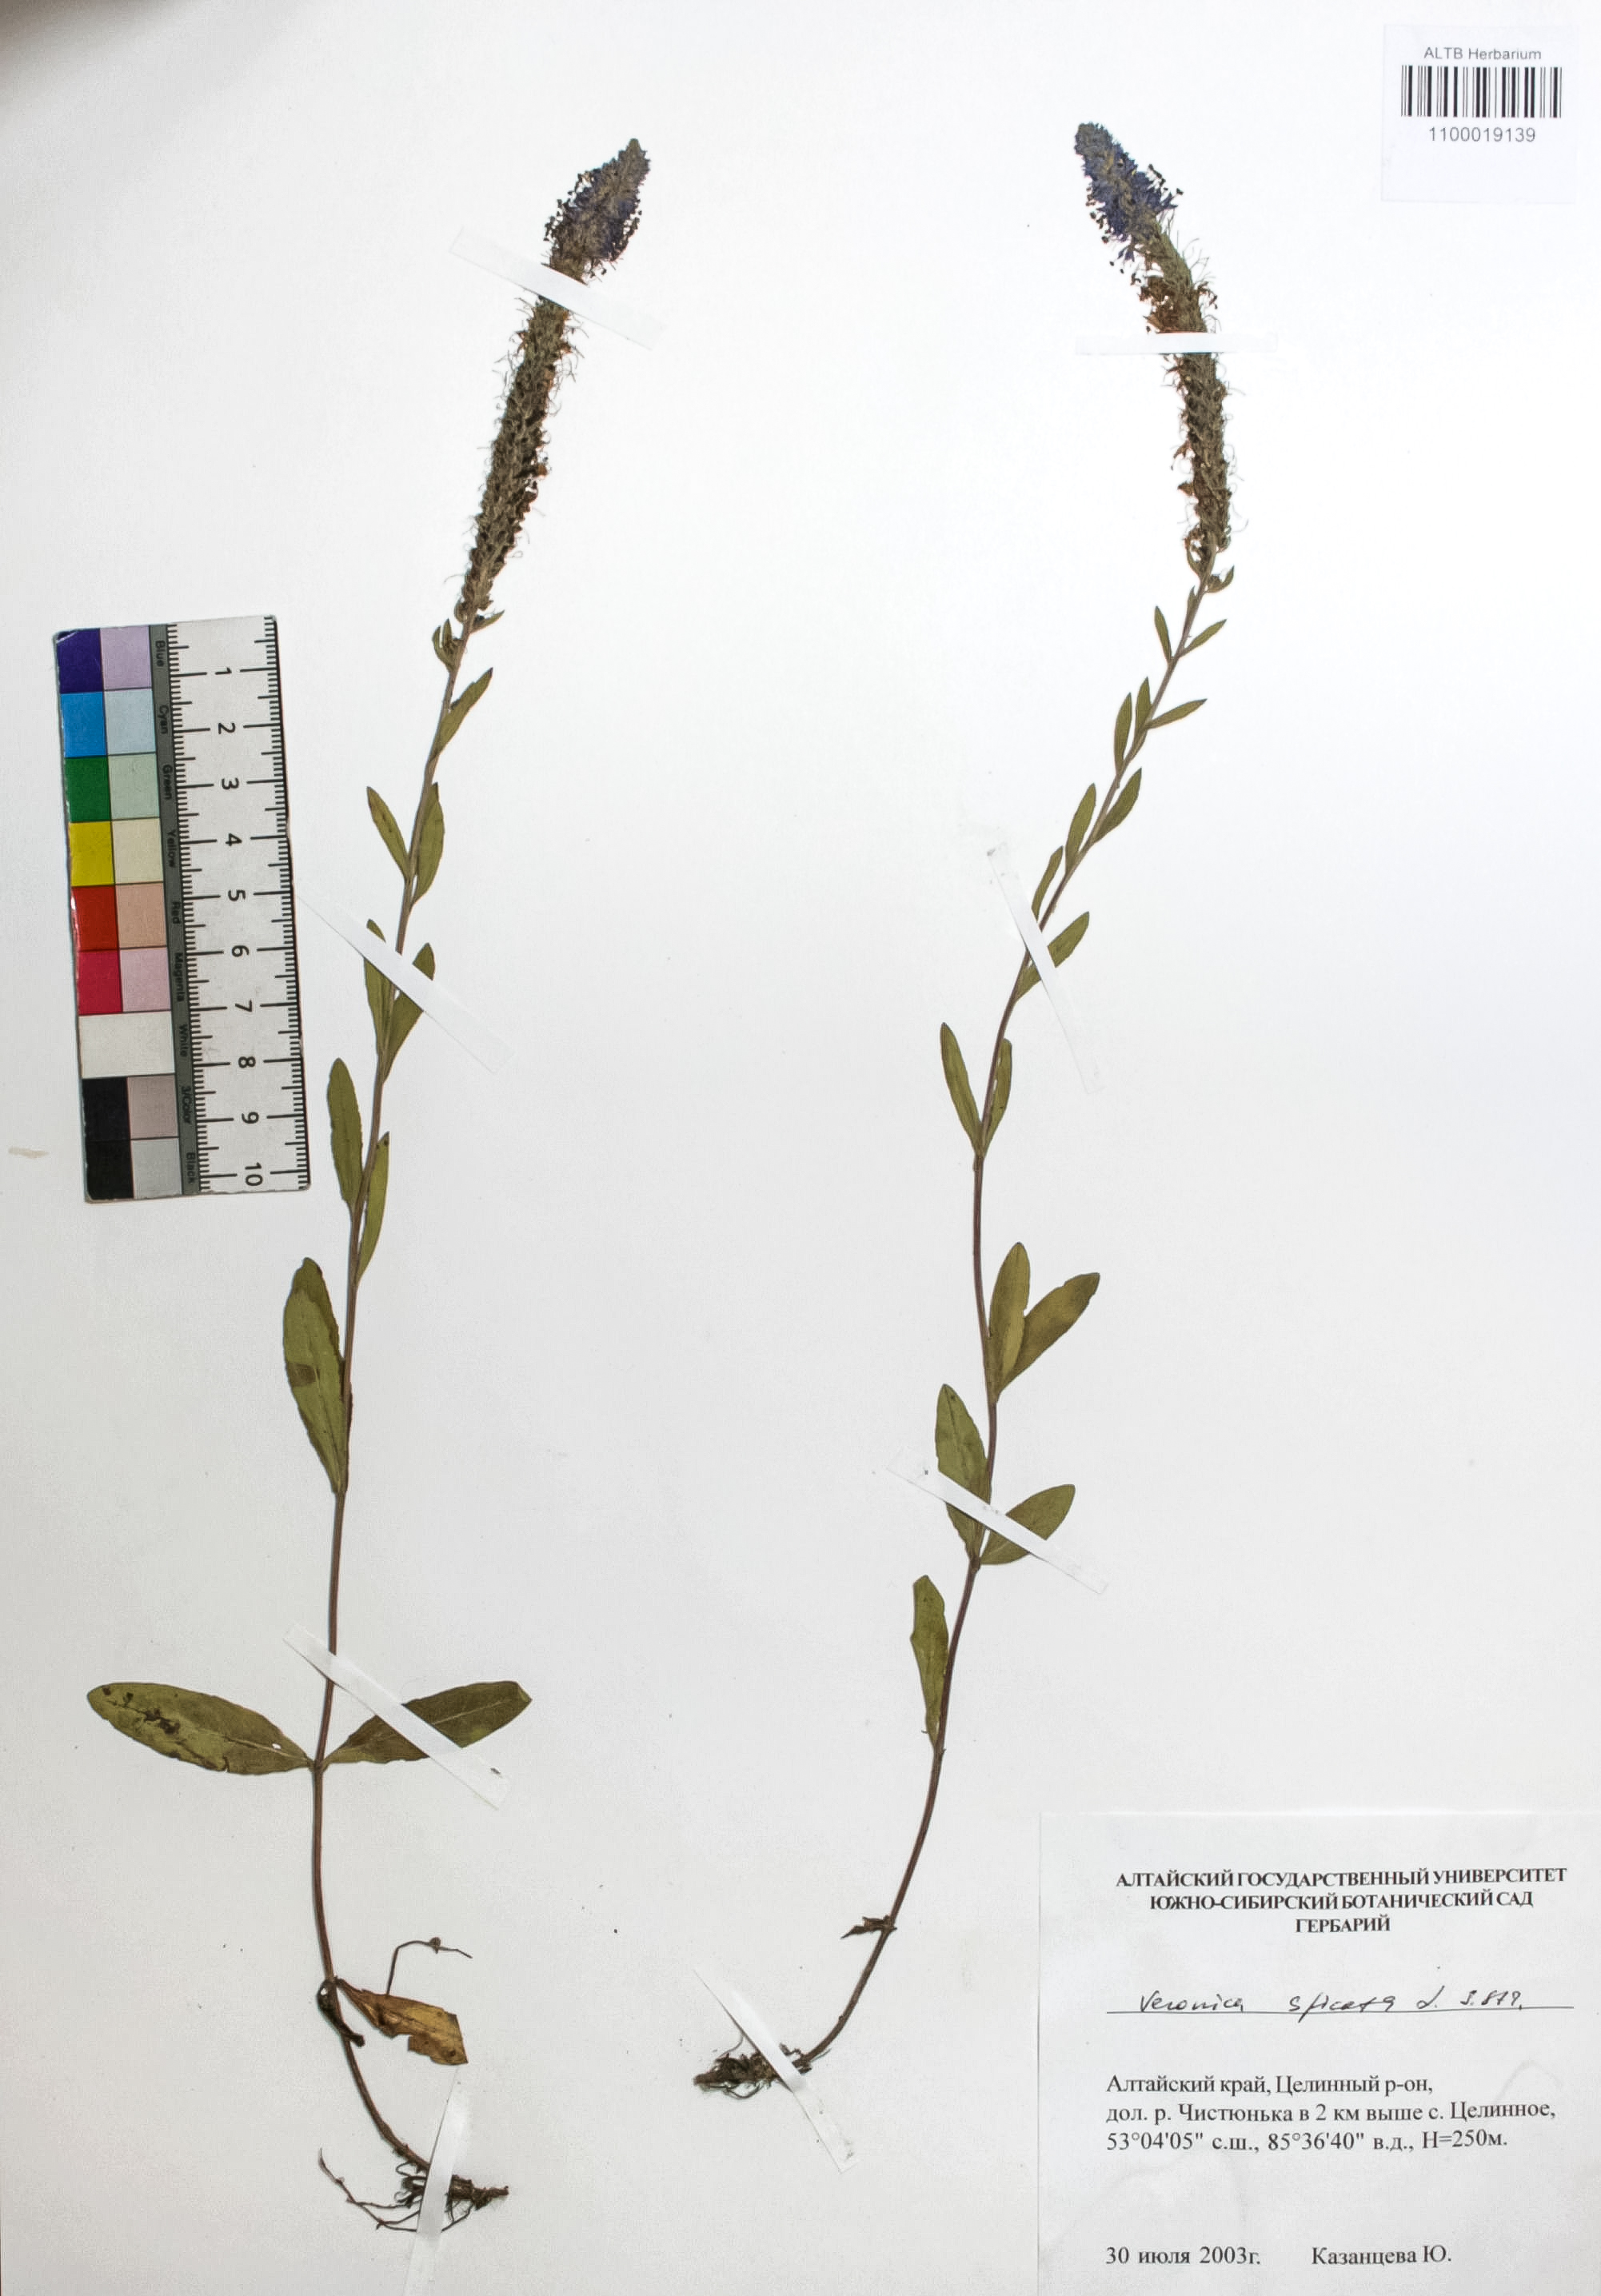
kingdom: Plantae
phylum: Tracheophyta
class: Magnoliopsida
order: Lamiales
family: Plantaginaceae
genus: Veronica
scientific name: Veronica spicata
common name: Spiked speedwell
